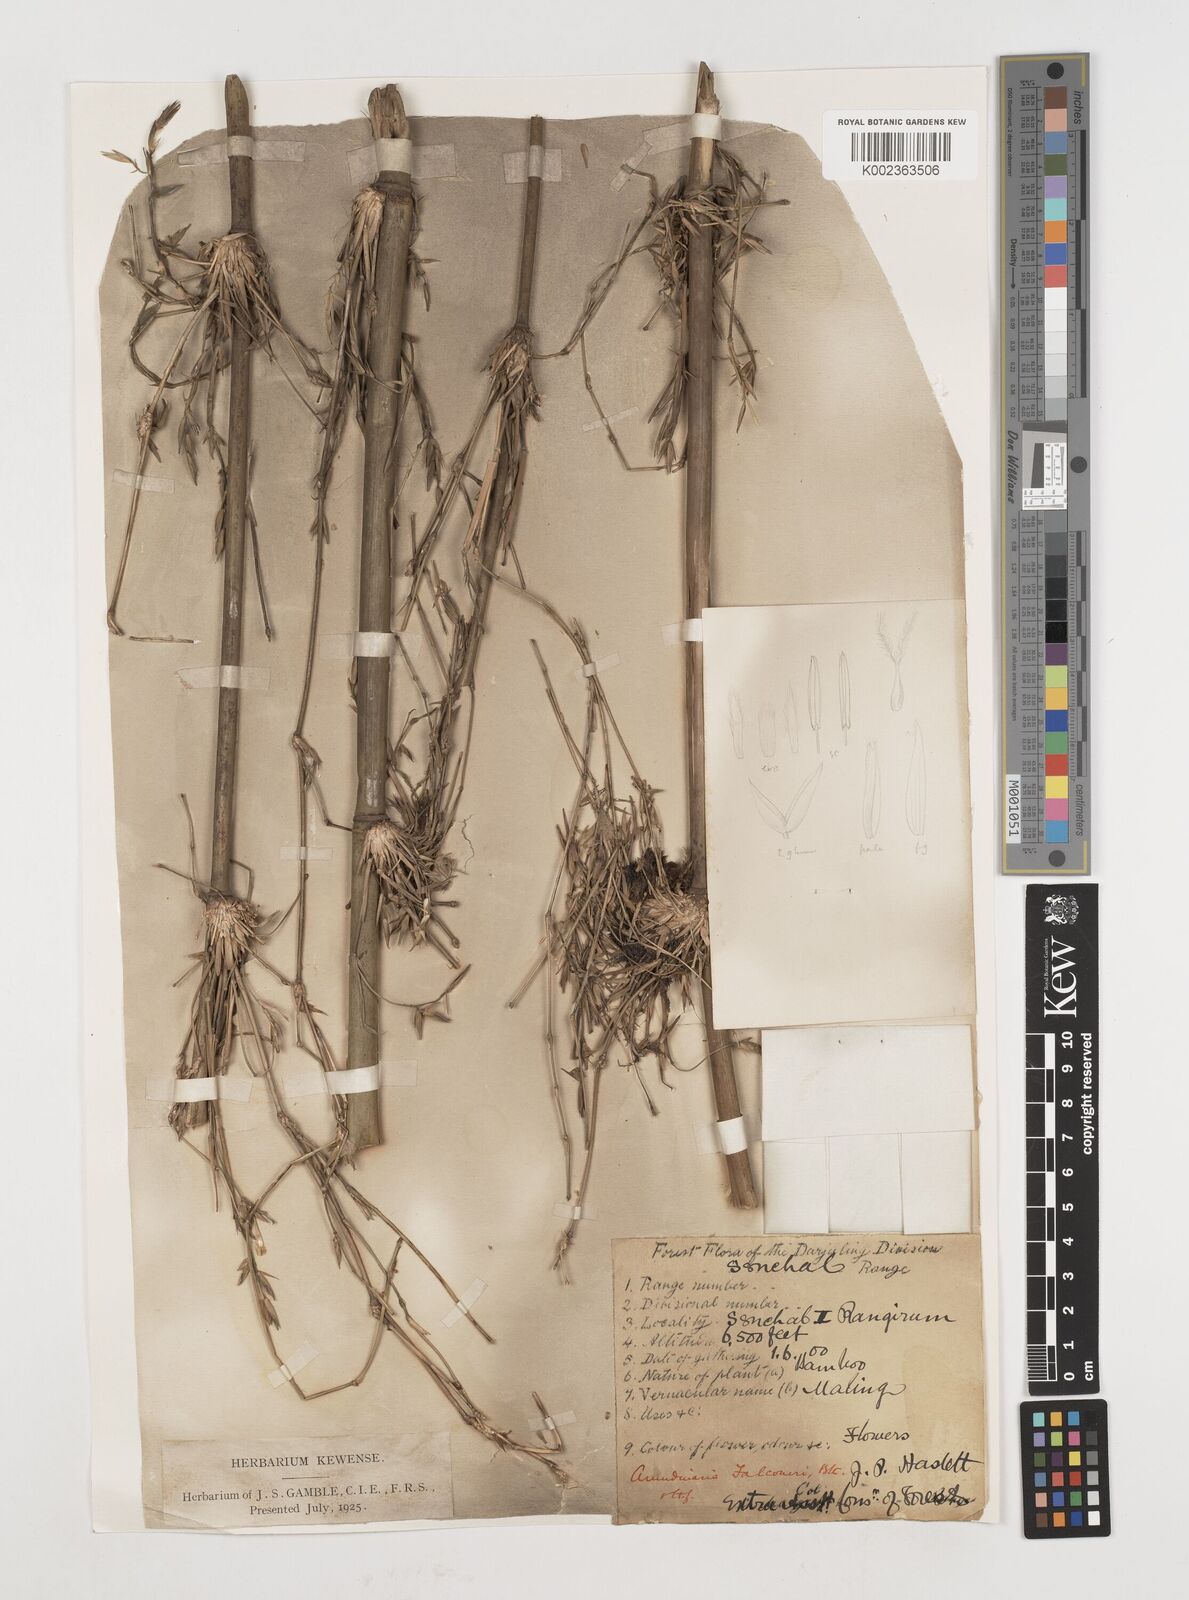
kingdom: Plantae
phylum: Tracheophyta
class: Liliopsida
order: Poales
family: Poaceae
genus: Himalayacalamus
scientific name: Himalayacalamus falconeri
